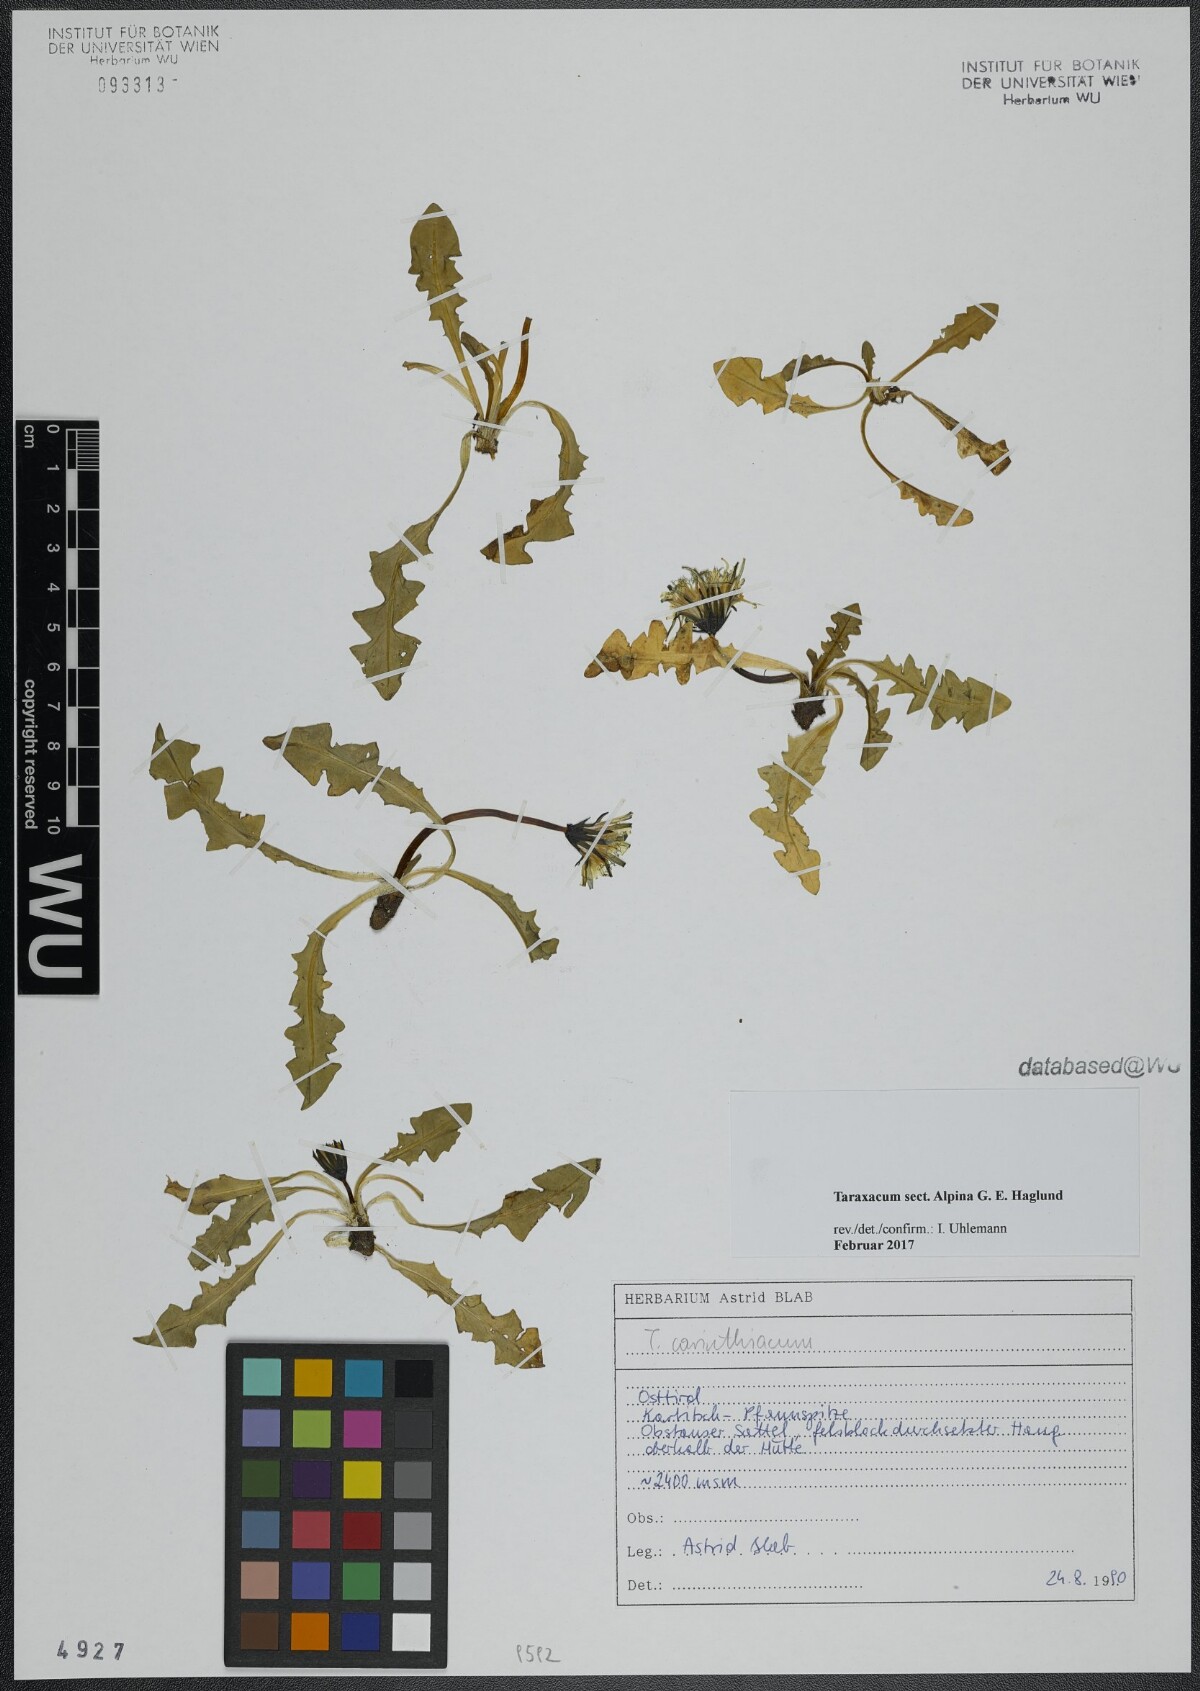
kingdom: Plantae
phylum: Tracheophyta
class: Magnoliopsida
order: Asterales
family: Asteraceae
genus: Taraxacum
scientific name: Taraxacum
